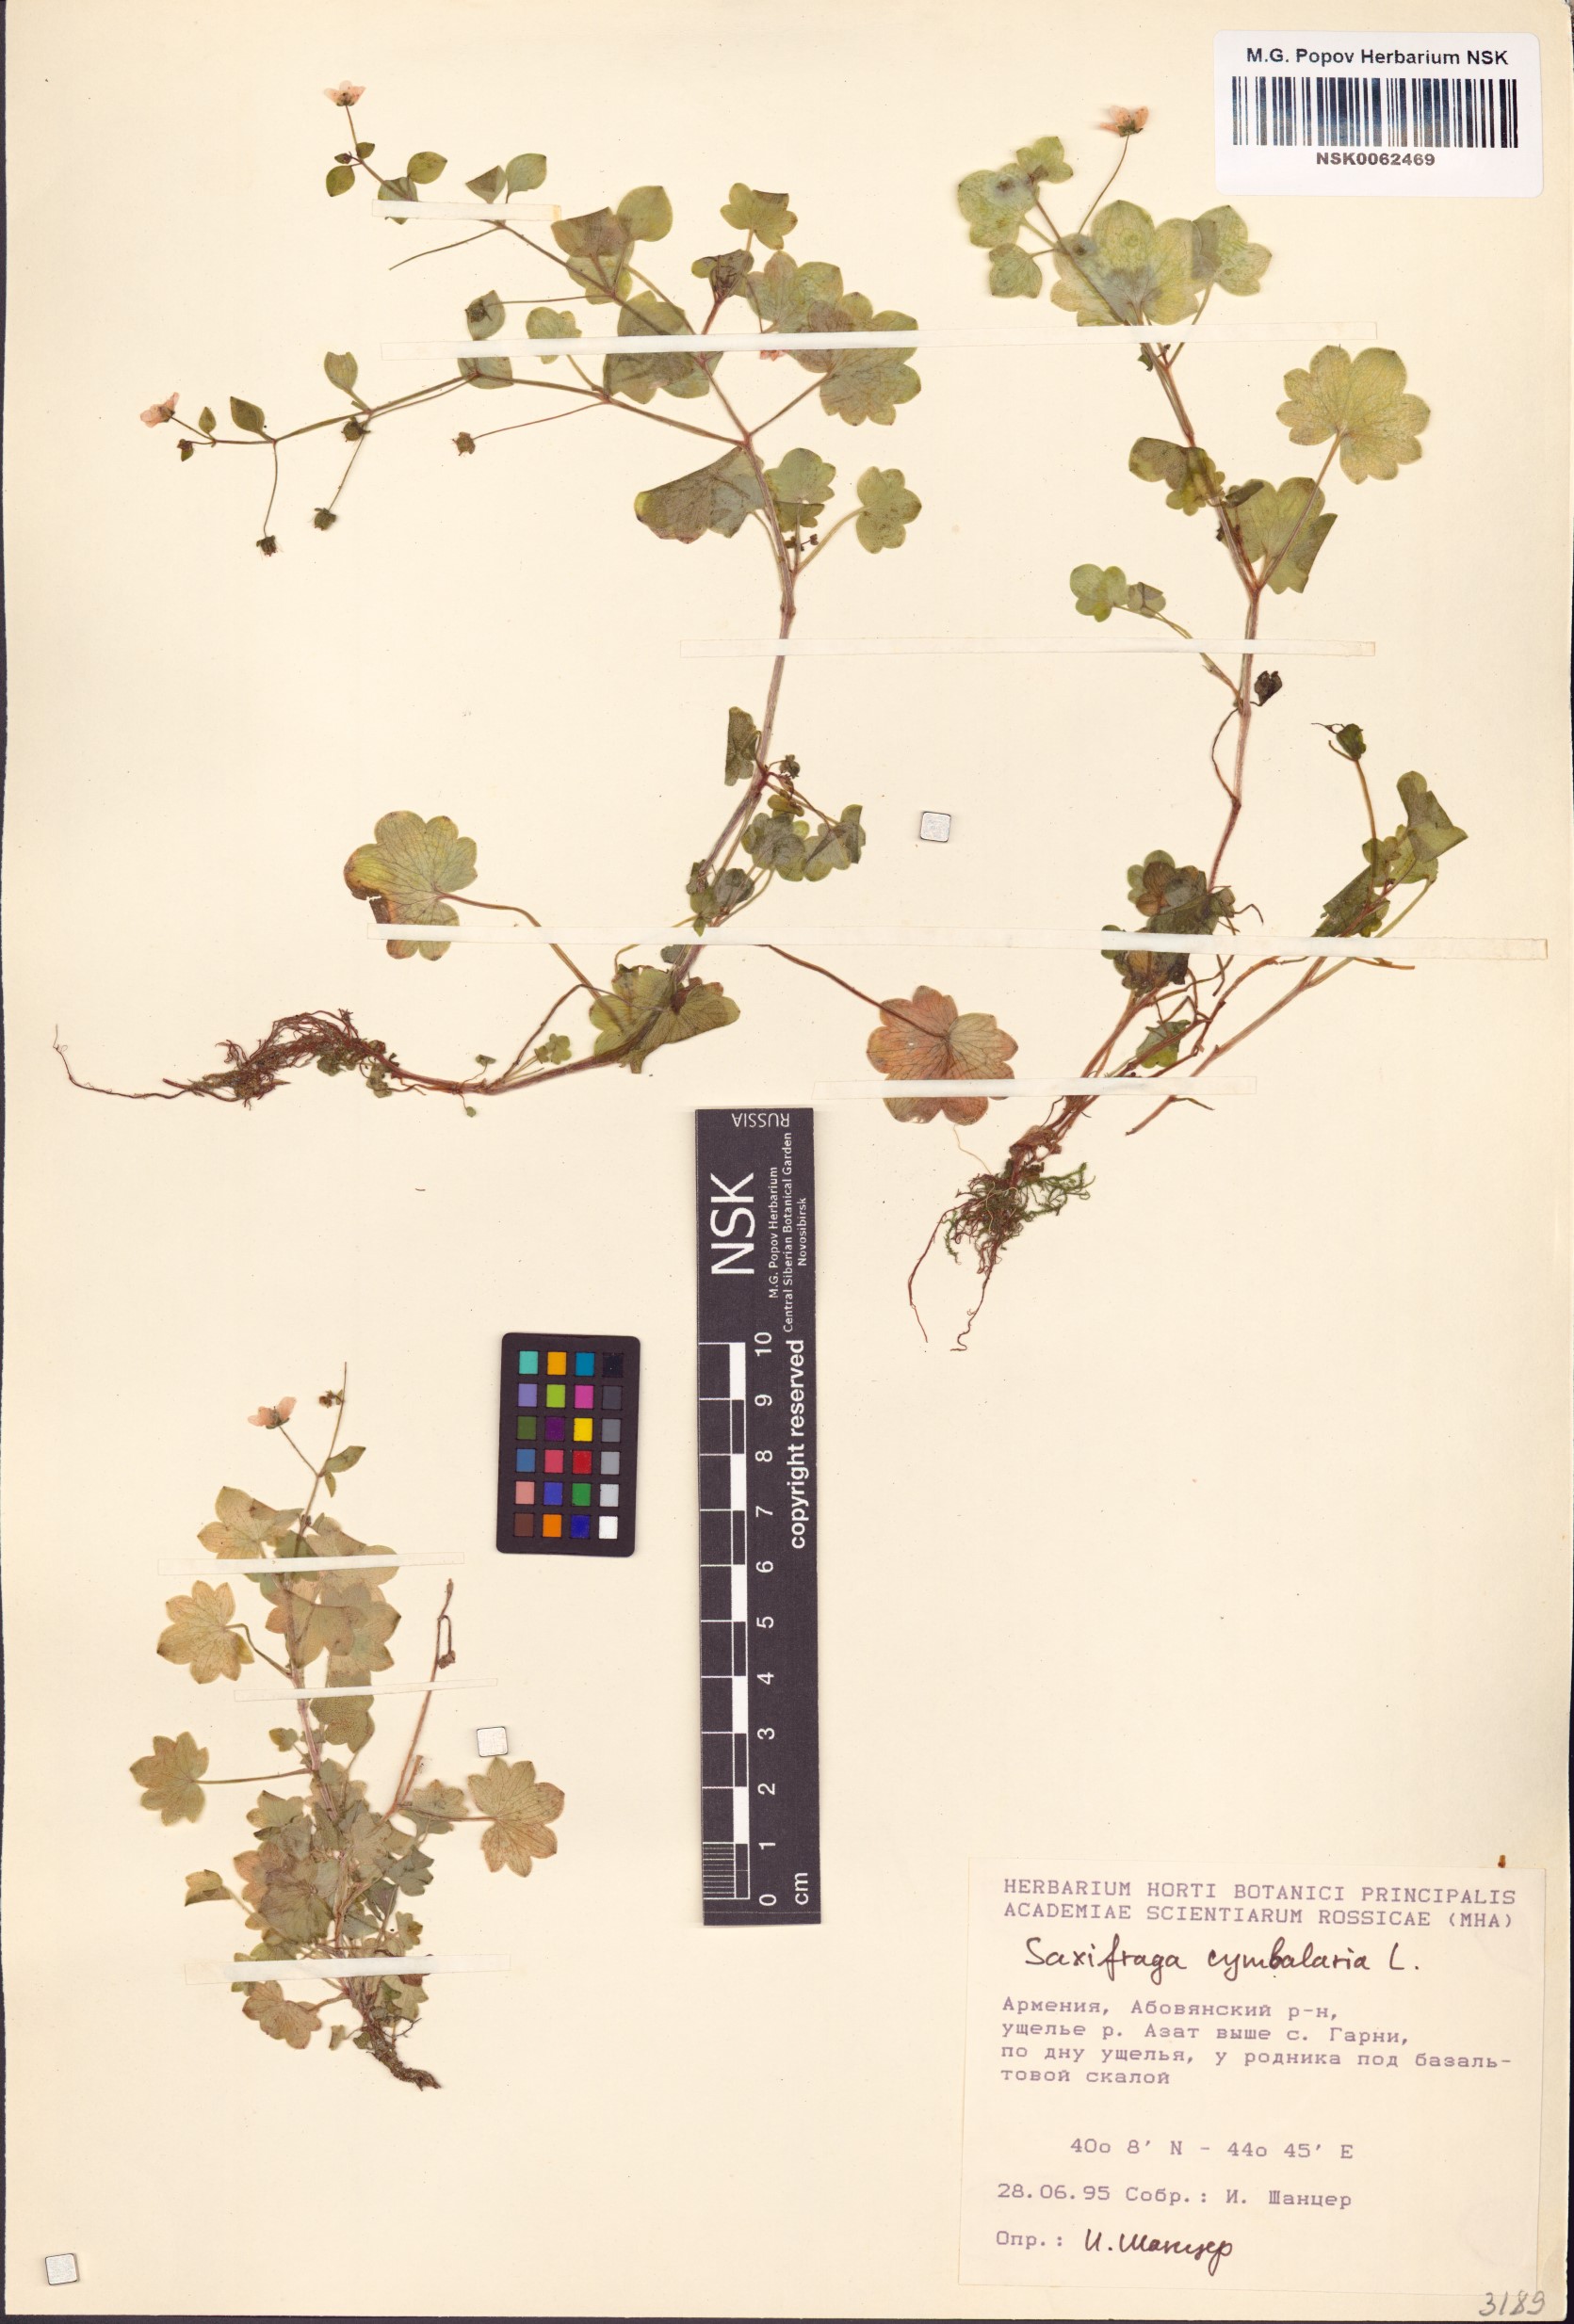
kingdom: Plantae
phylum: Tracheophyta
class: Magnoliopsida
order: Saxifragales
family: Saxifragaceae
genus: Saxifraga
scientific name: Saxifraga cymbalaria
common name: Celandine saxifrage
